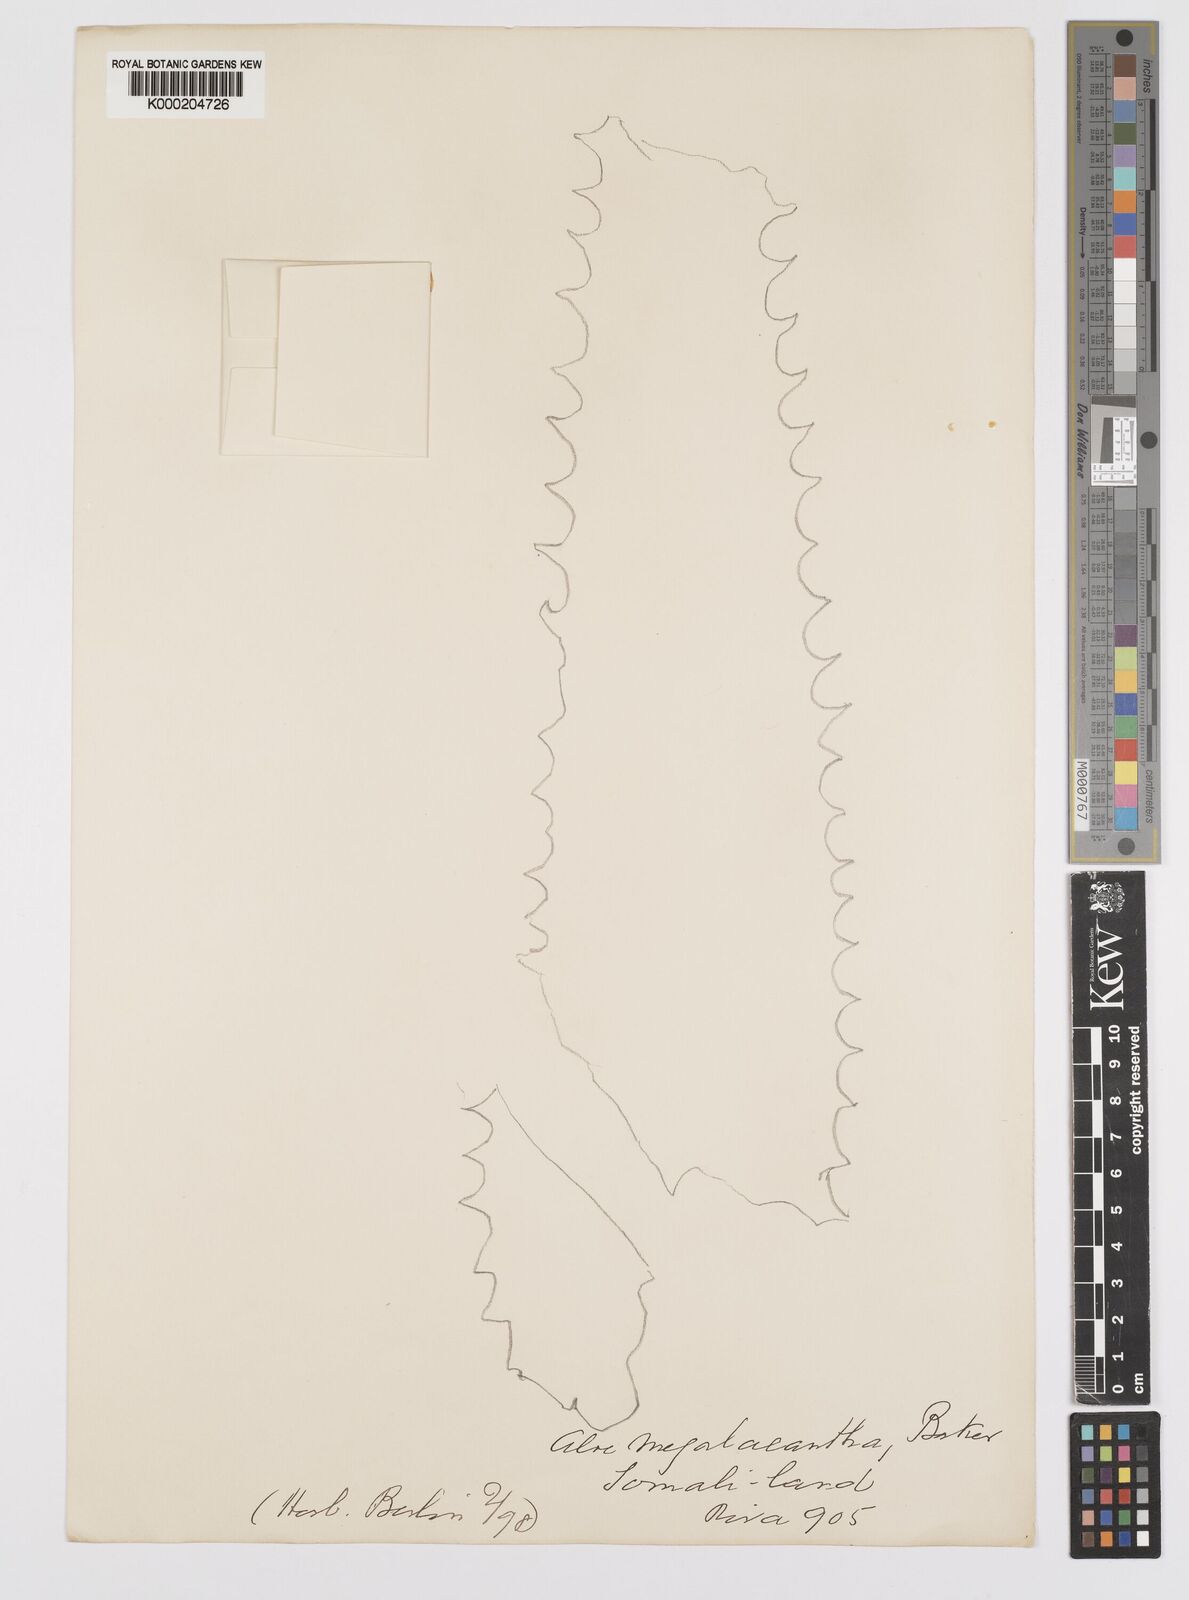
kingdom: Plantae
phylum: Tracheophyta
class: Liliopsida
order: Asparagales
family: Asphodelaceae
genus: Aloe
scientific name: Aloe megalacantha
